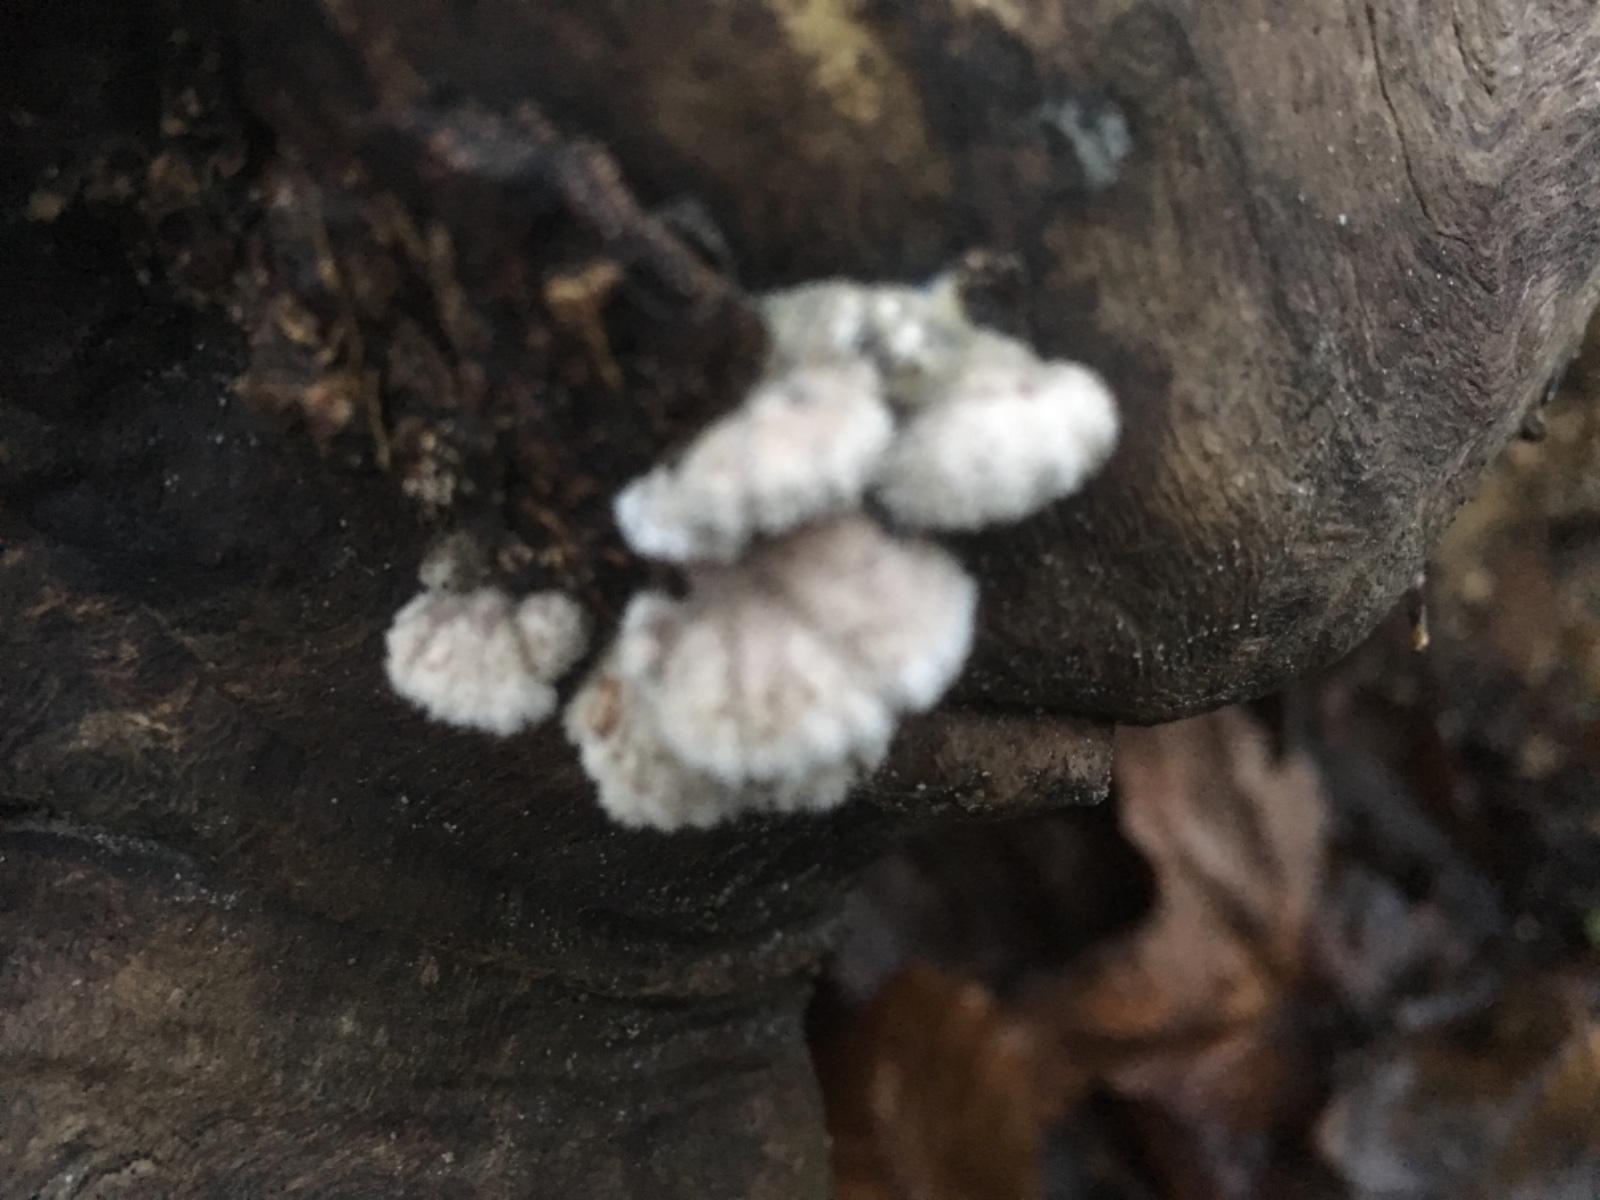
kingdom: Fungi
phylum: Basidiomycota
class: Agaricomycetes
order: Agaricales
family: Schizophyllaceae
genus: Schizophyllum
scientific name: Schizophyllum commune
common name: kløvblad
